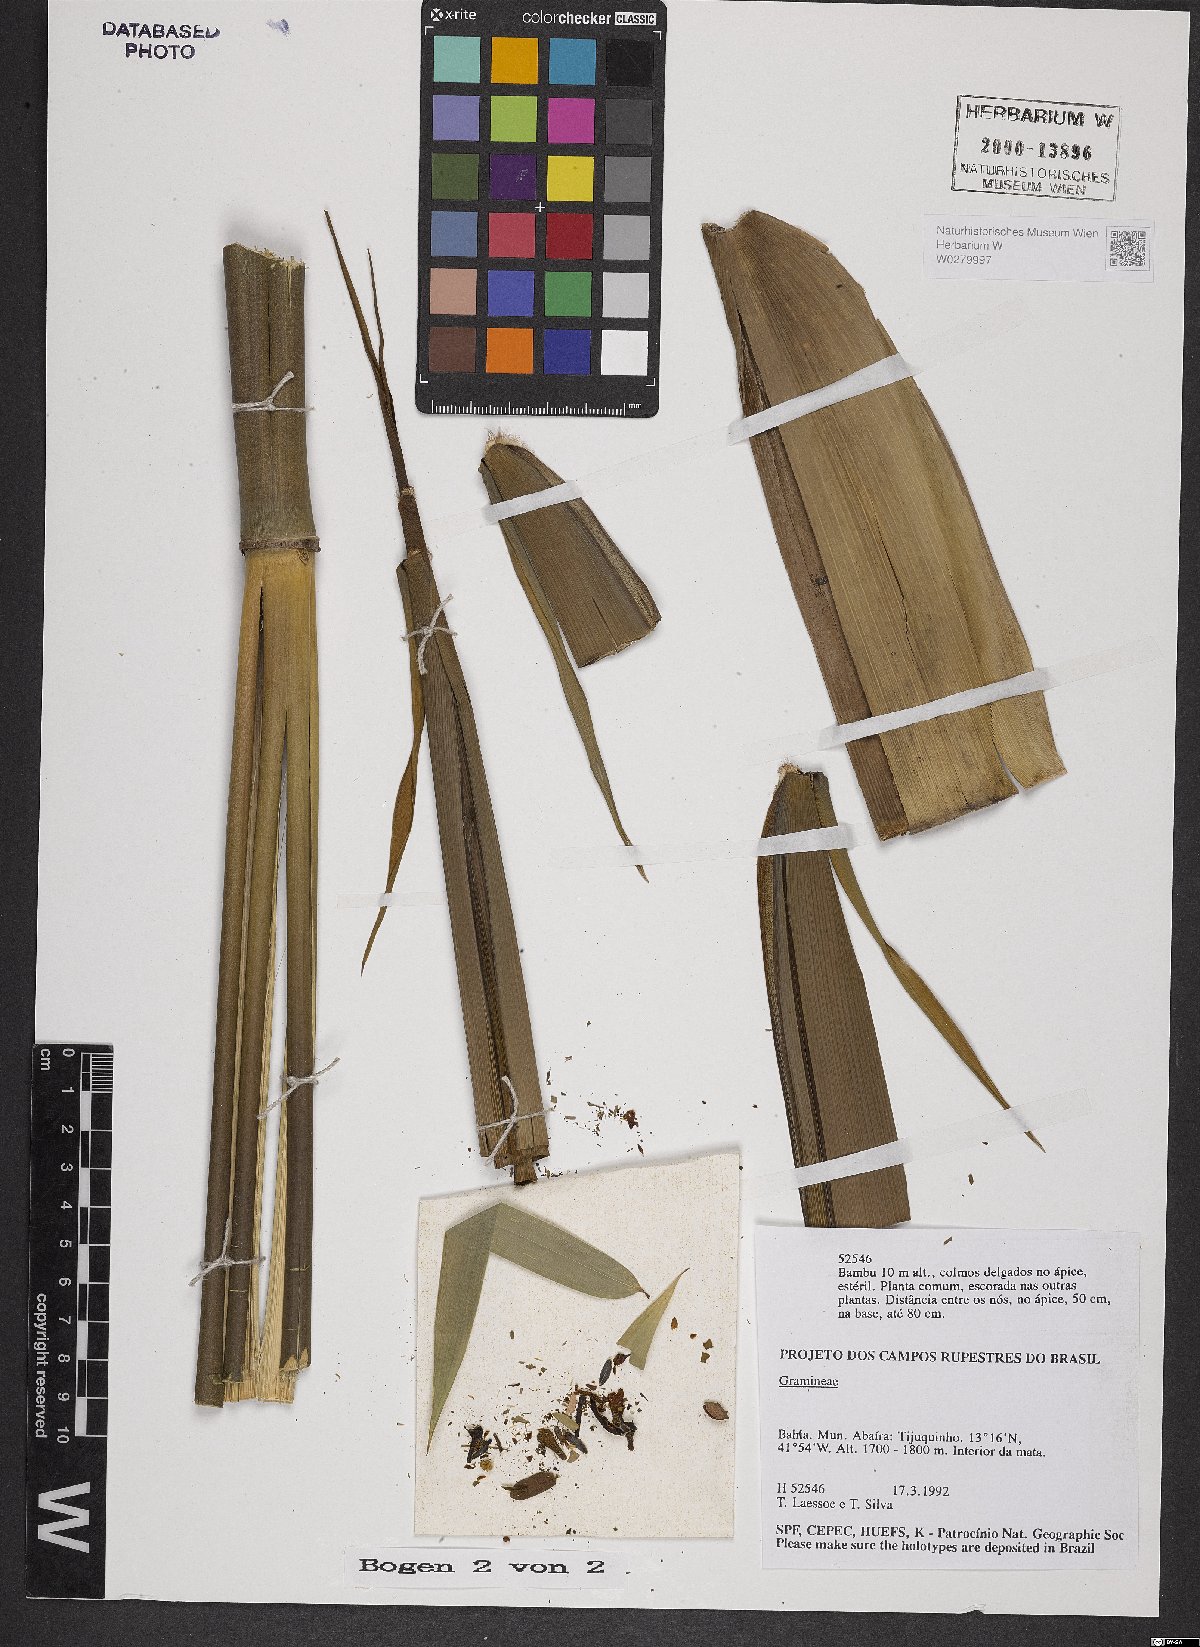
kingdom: Plantae
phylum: Tracheophyta
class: Liliopsida
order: Poales
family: Poaceae
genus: Bambusa
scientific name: Bambusa
